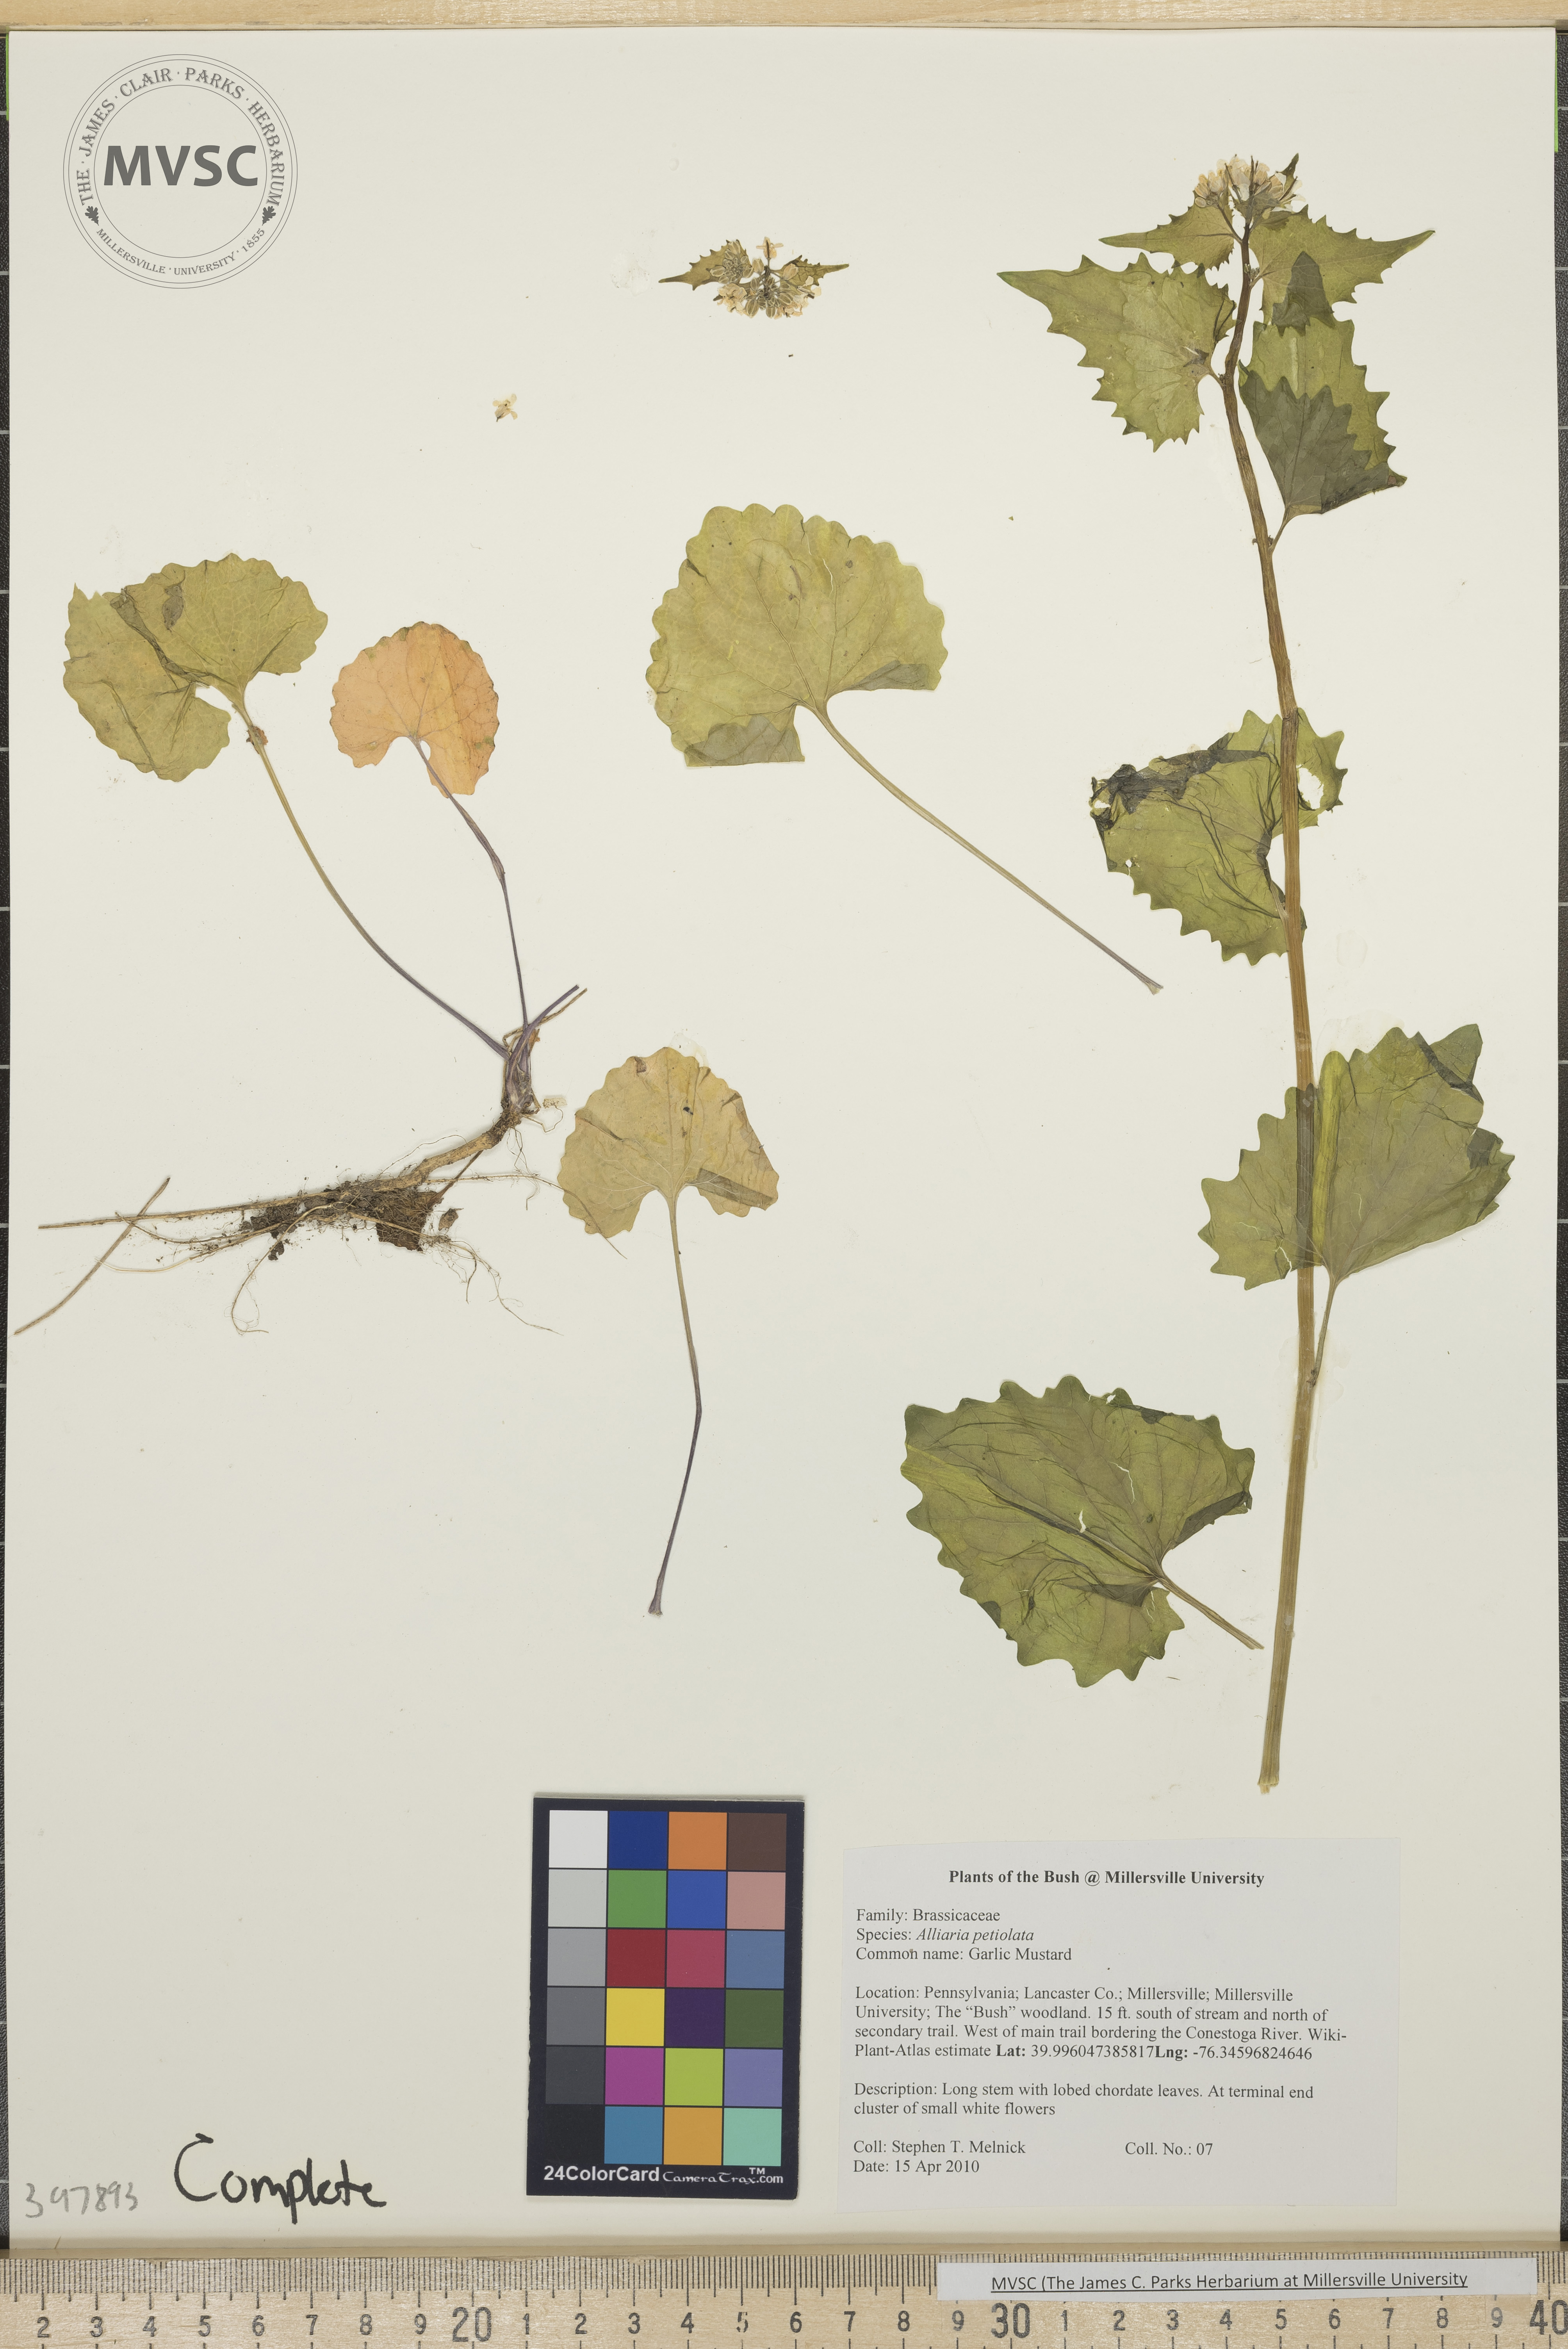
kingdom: Plantae
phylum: Tracheophyta
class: Magnoliopsida
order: Brassicales
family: Brassicaceae
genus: Alliaria
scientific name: Alliaria petiolata
